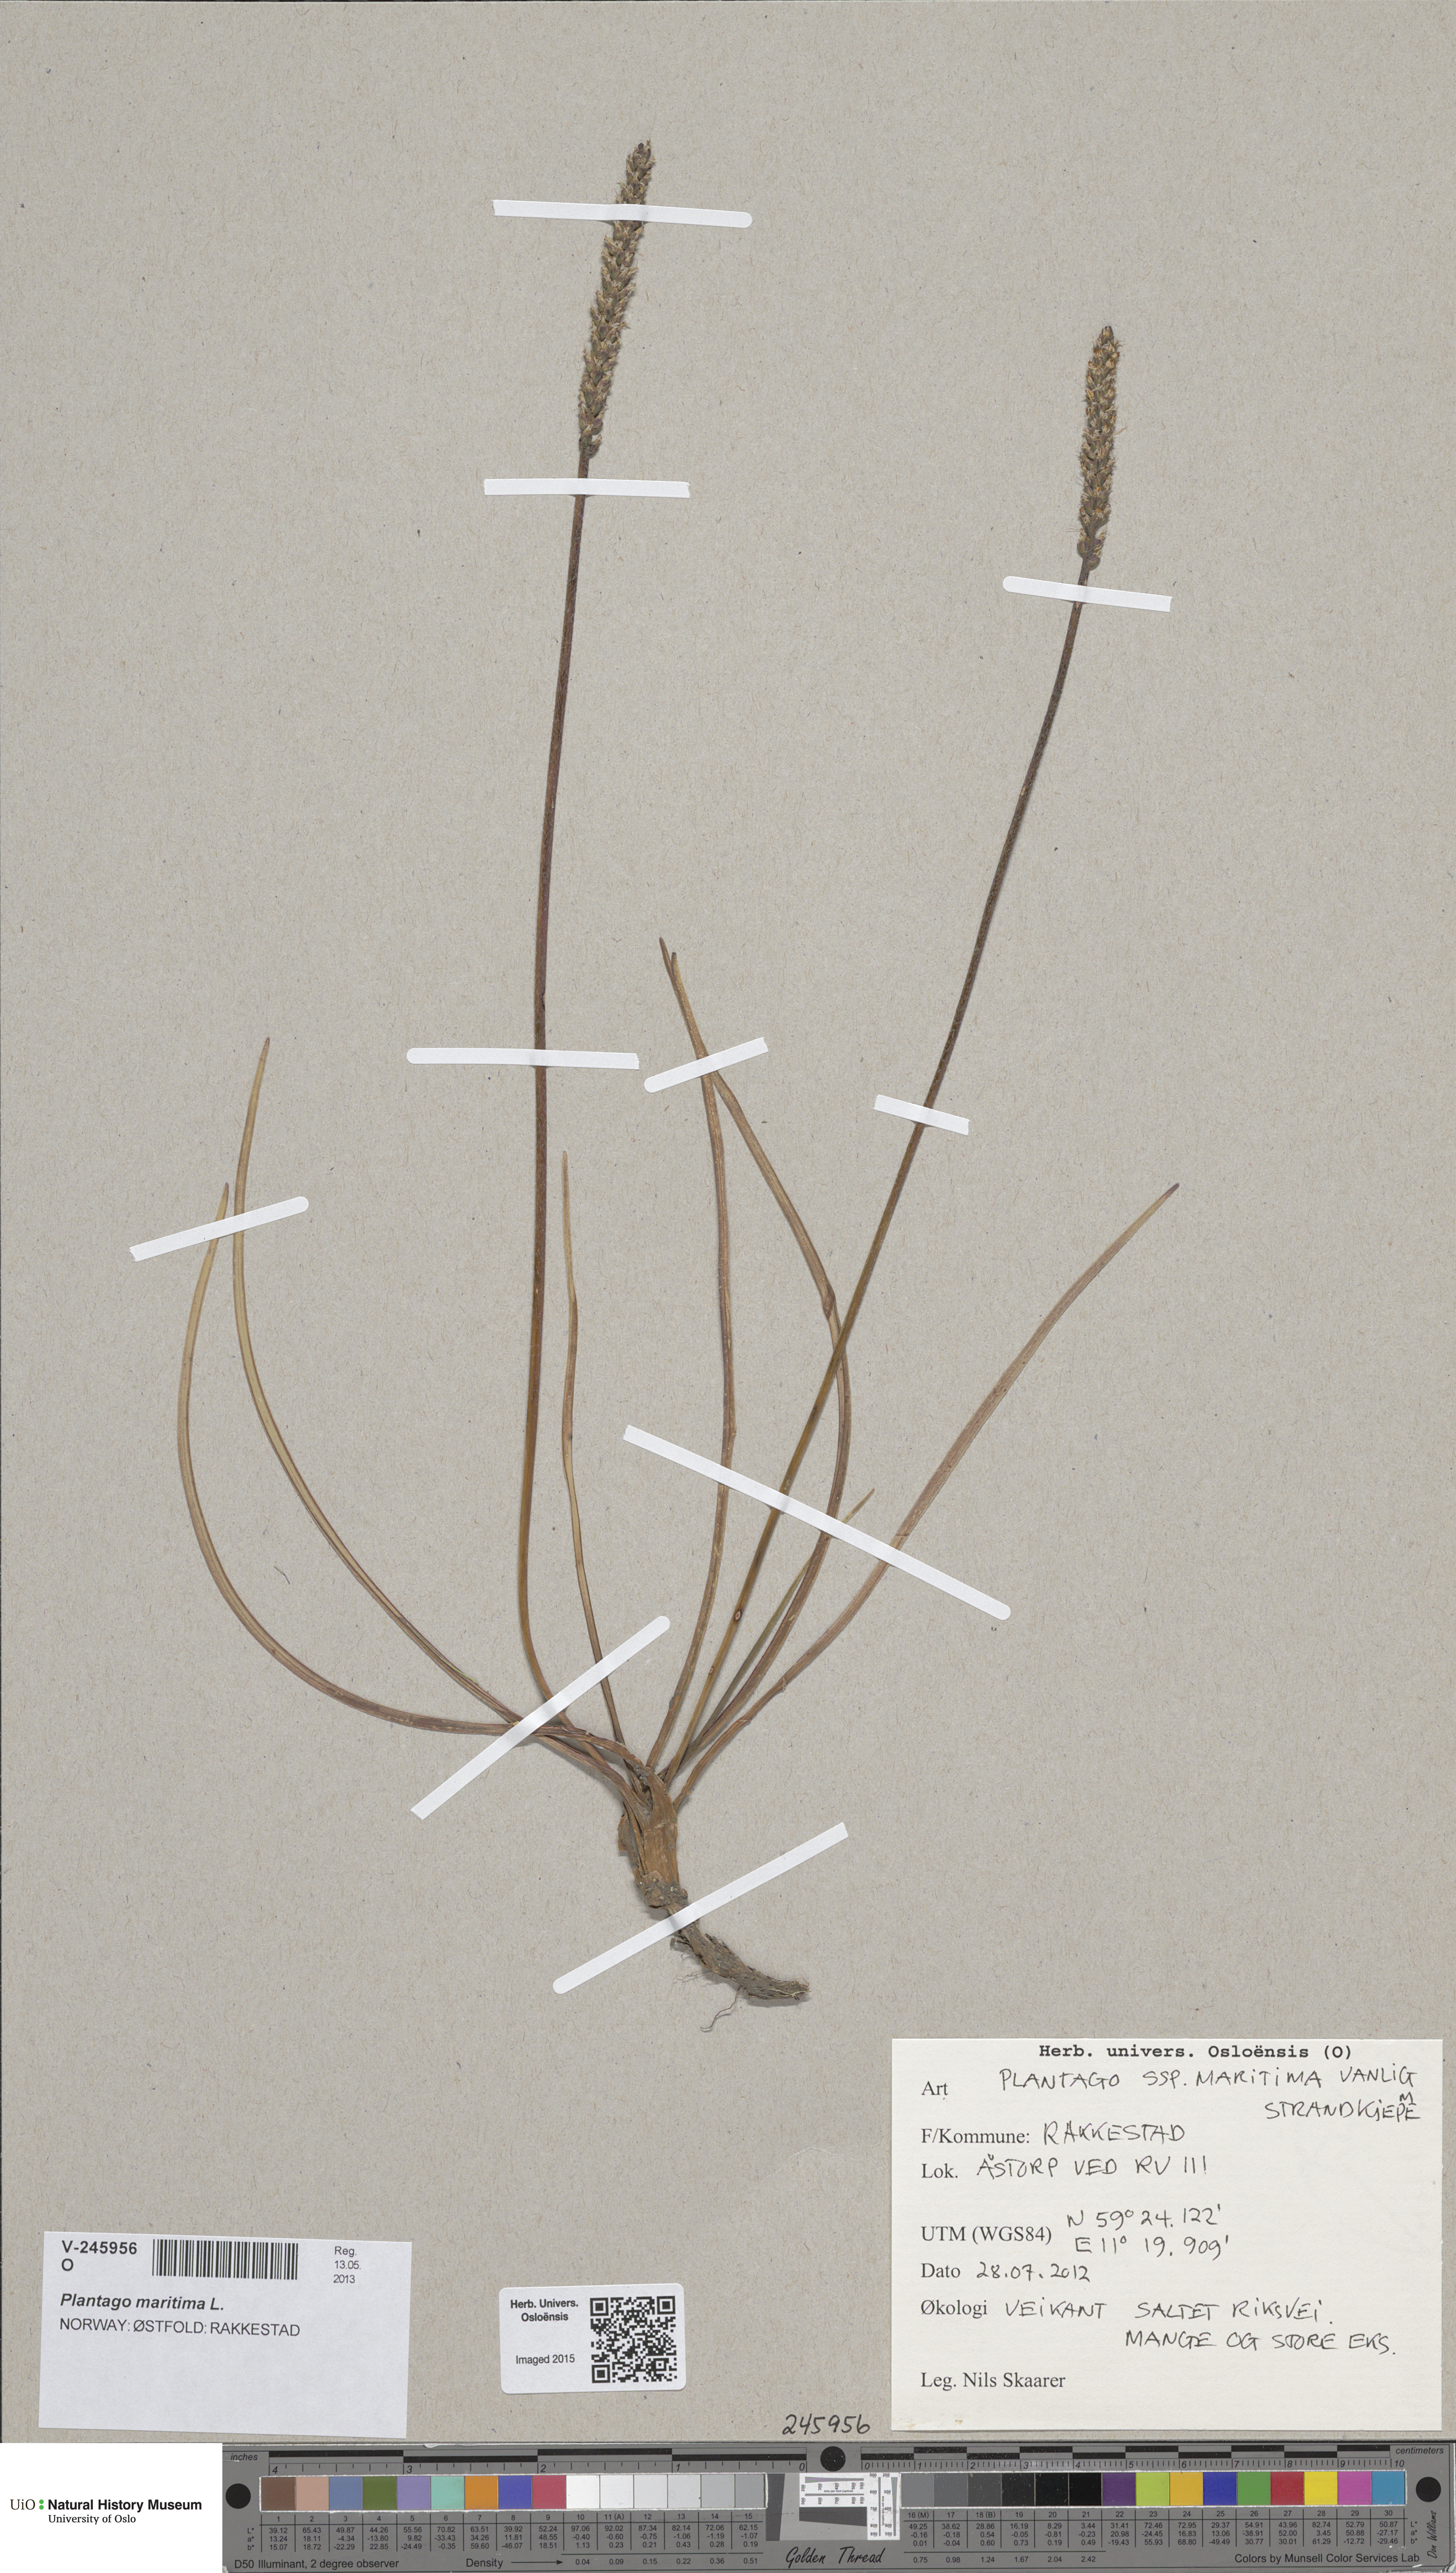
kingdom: Plantae
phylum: Tracheophyta
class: Magnoliopsida
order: Lamiales
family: Plantaginaceae
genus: Plantago
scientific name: Plantago maritima
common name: Sea plantain
